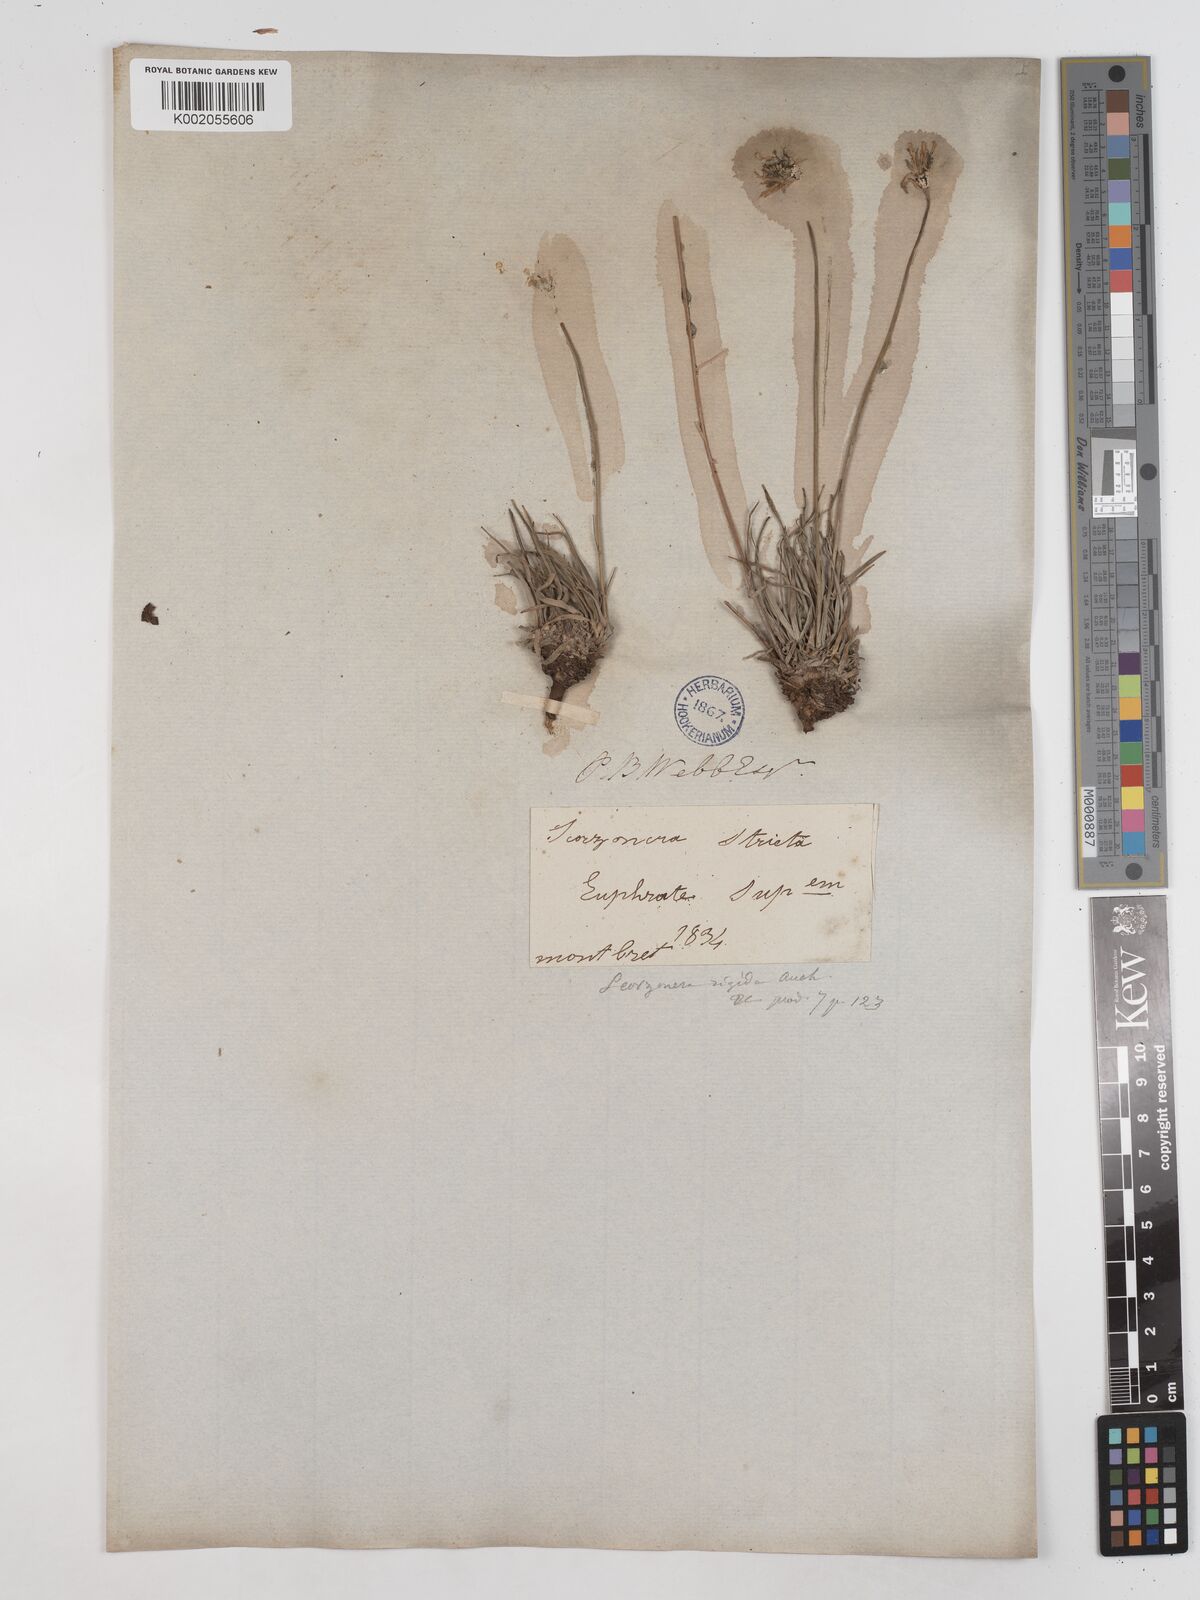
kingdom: Plantae
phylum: Tracheophyta
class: Magnoliopsida
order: Asterales
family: Asteraceae
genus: Goekyighitia
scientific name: Goekyighitia rigida
